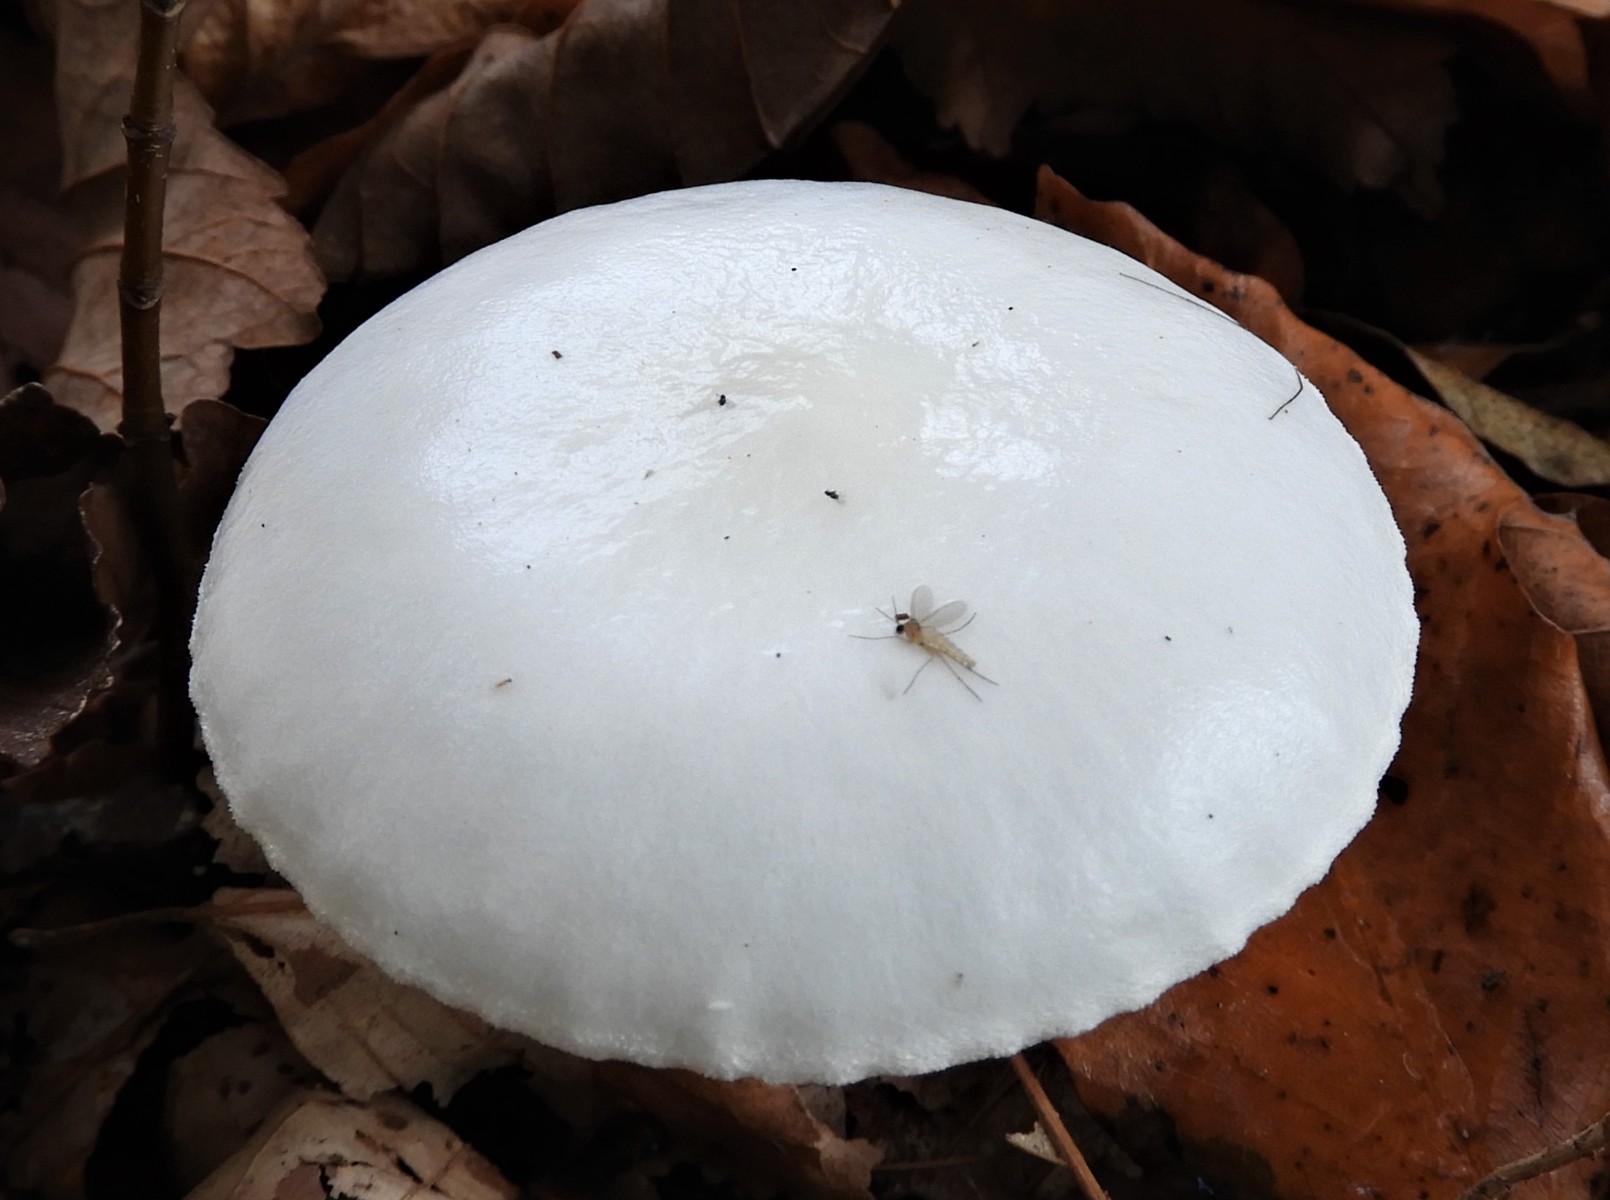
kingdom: Fungi
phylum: Basidiomycota
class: Agaricomycetes
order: Agaricales
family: Hygrophoraceae
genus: Hygrophorus
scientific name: Hygrophorus eburneus
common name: elfenbens-sneglehat
